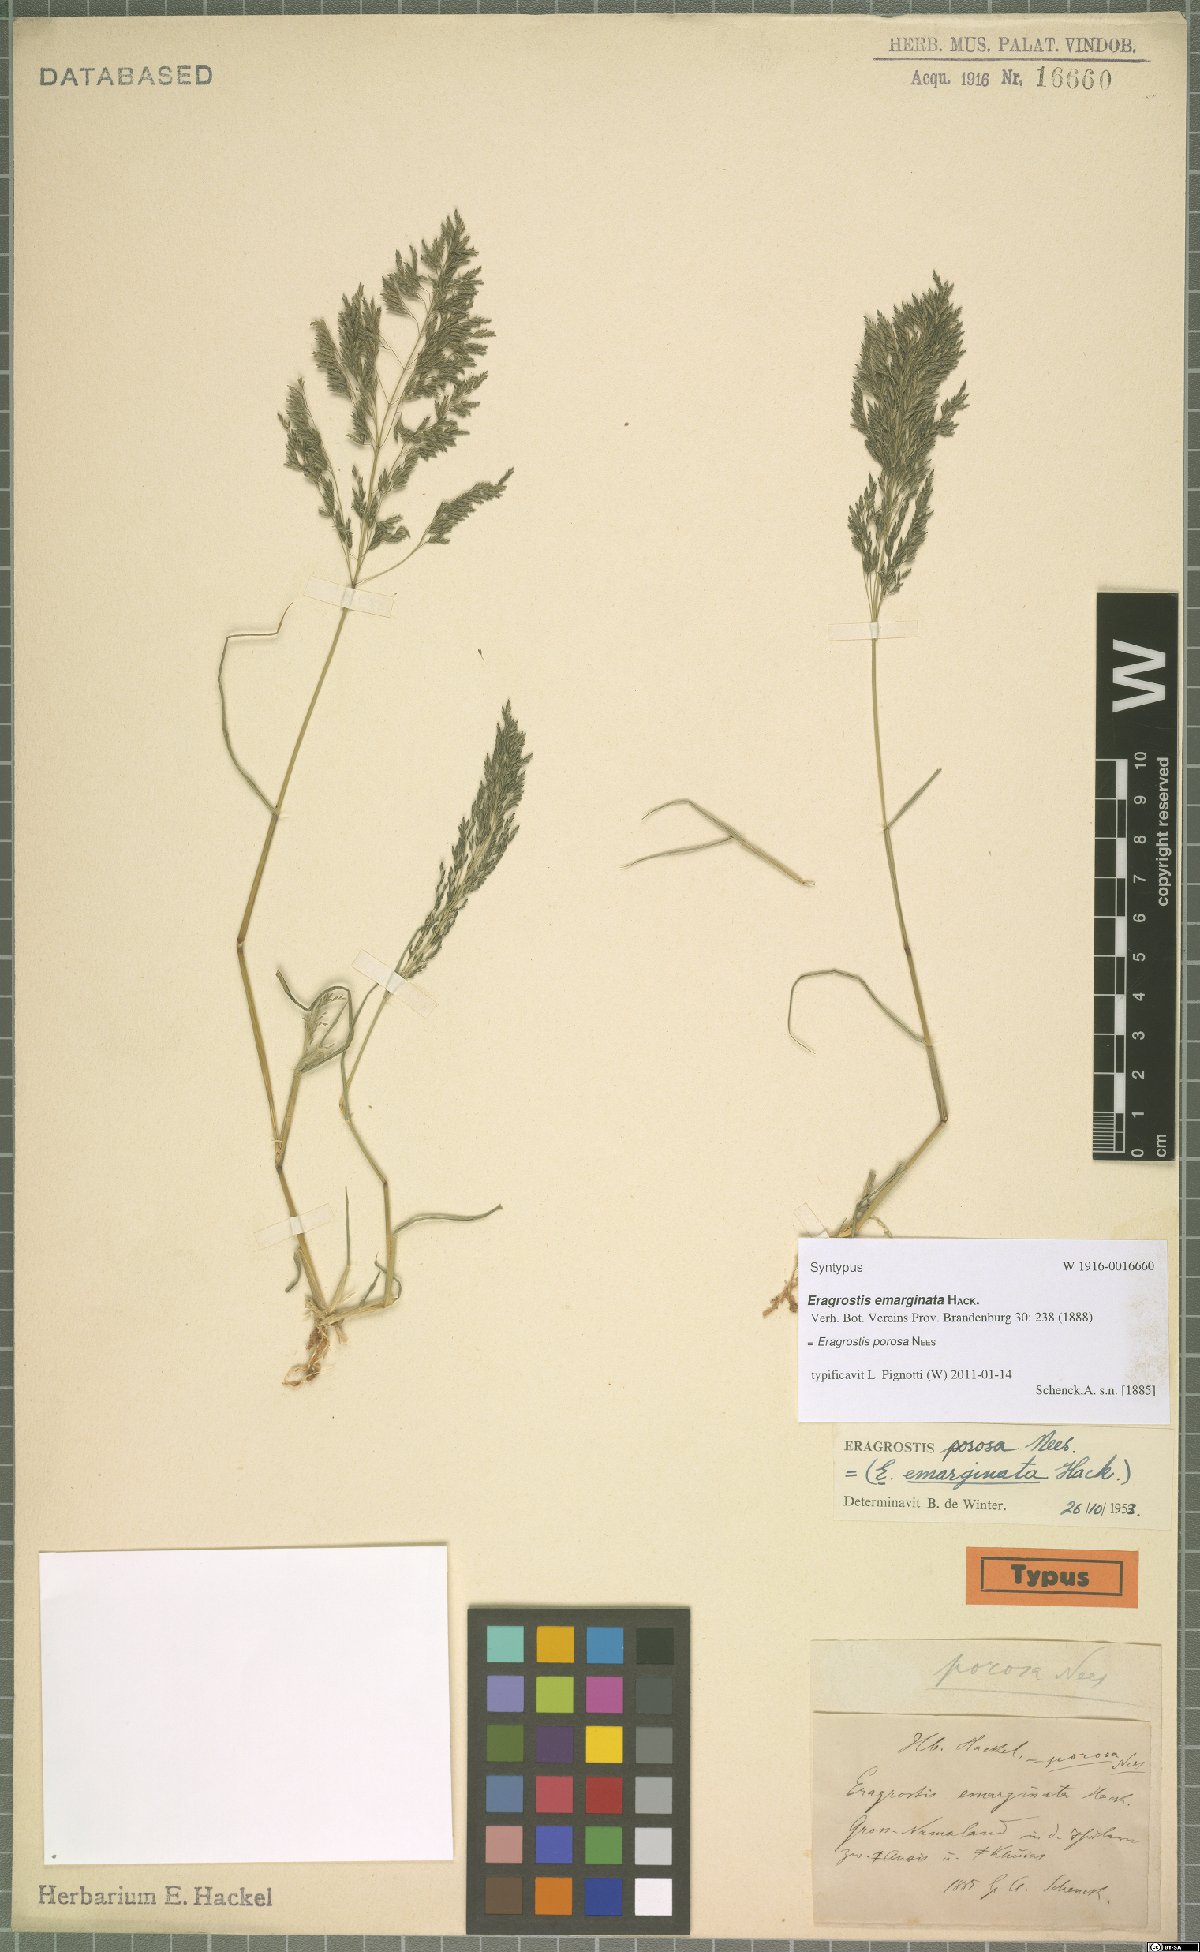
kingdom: Plantae
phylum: Tracheophyta
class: Liliopsida
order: Poales
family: Poaceae
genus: Eragrostis
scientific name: Eragrostis porosa
